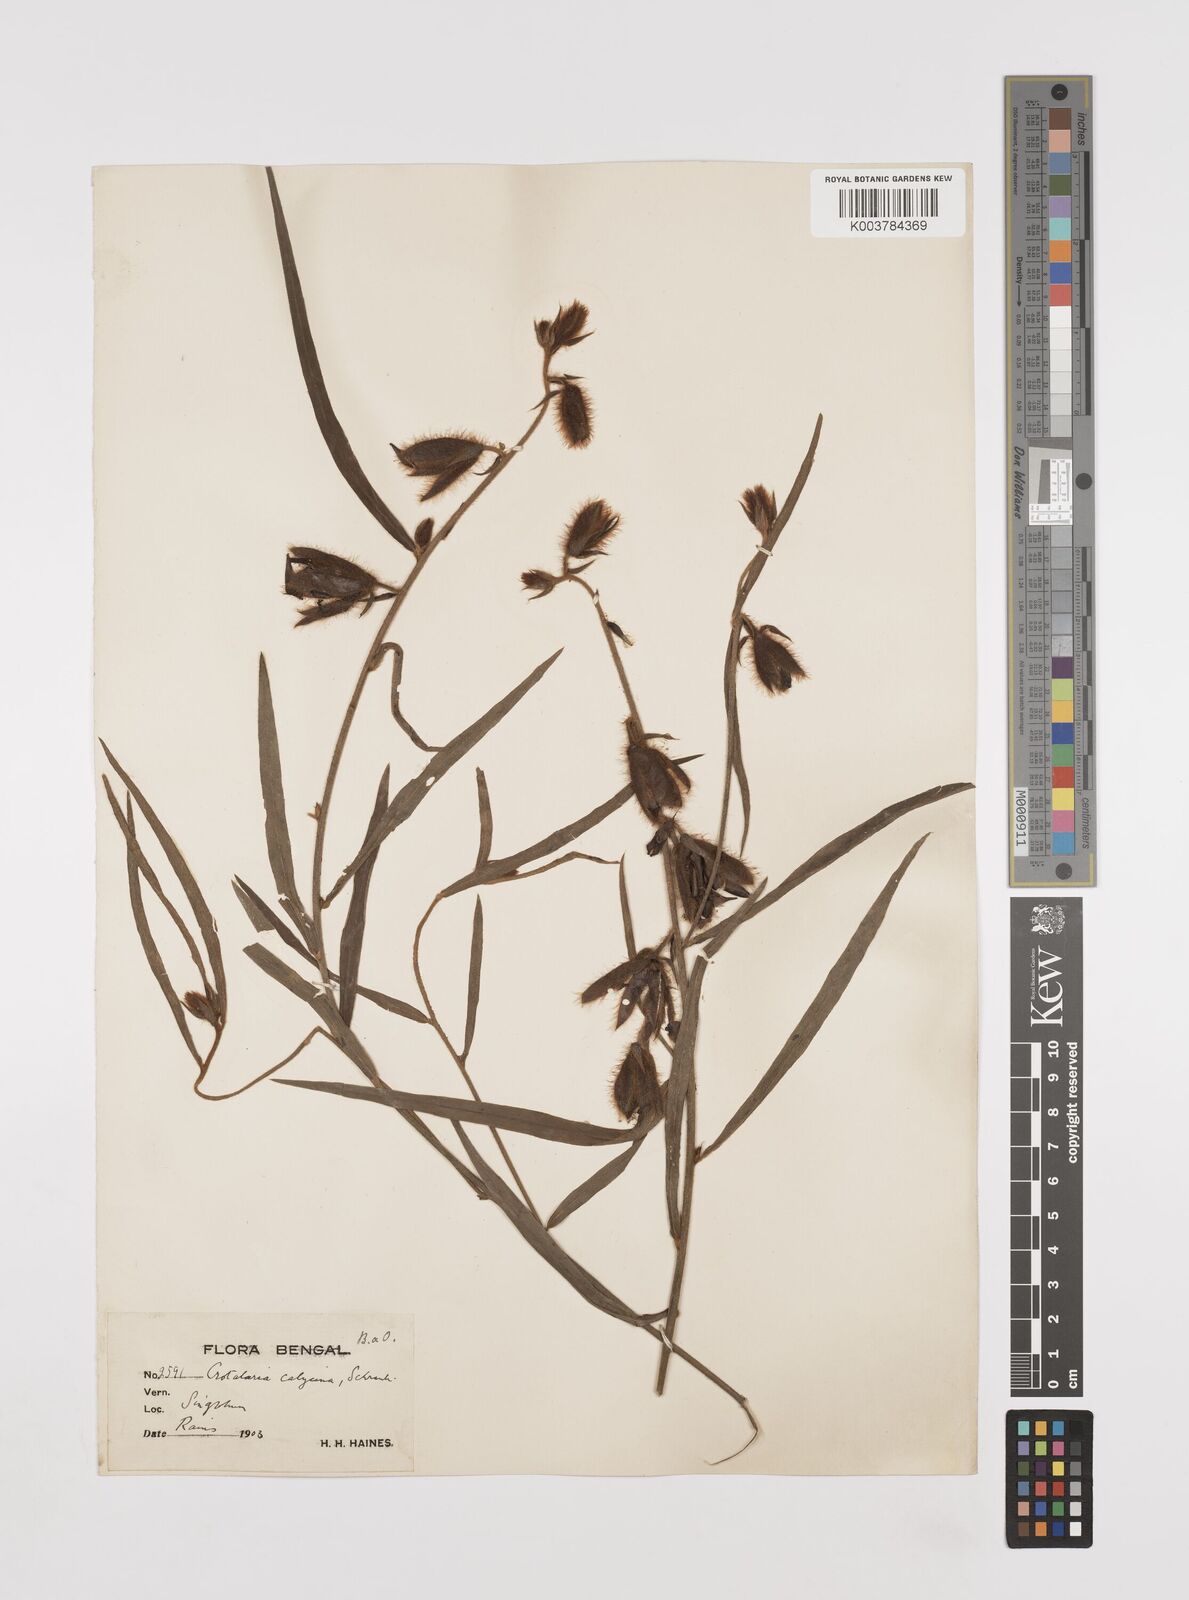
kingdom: Plantae
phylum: Tracheophyta
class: Magnoliopsida
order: Fabales
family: Fabaceae
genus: Crotalaria
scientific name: Crotalaria calycina
